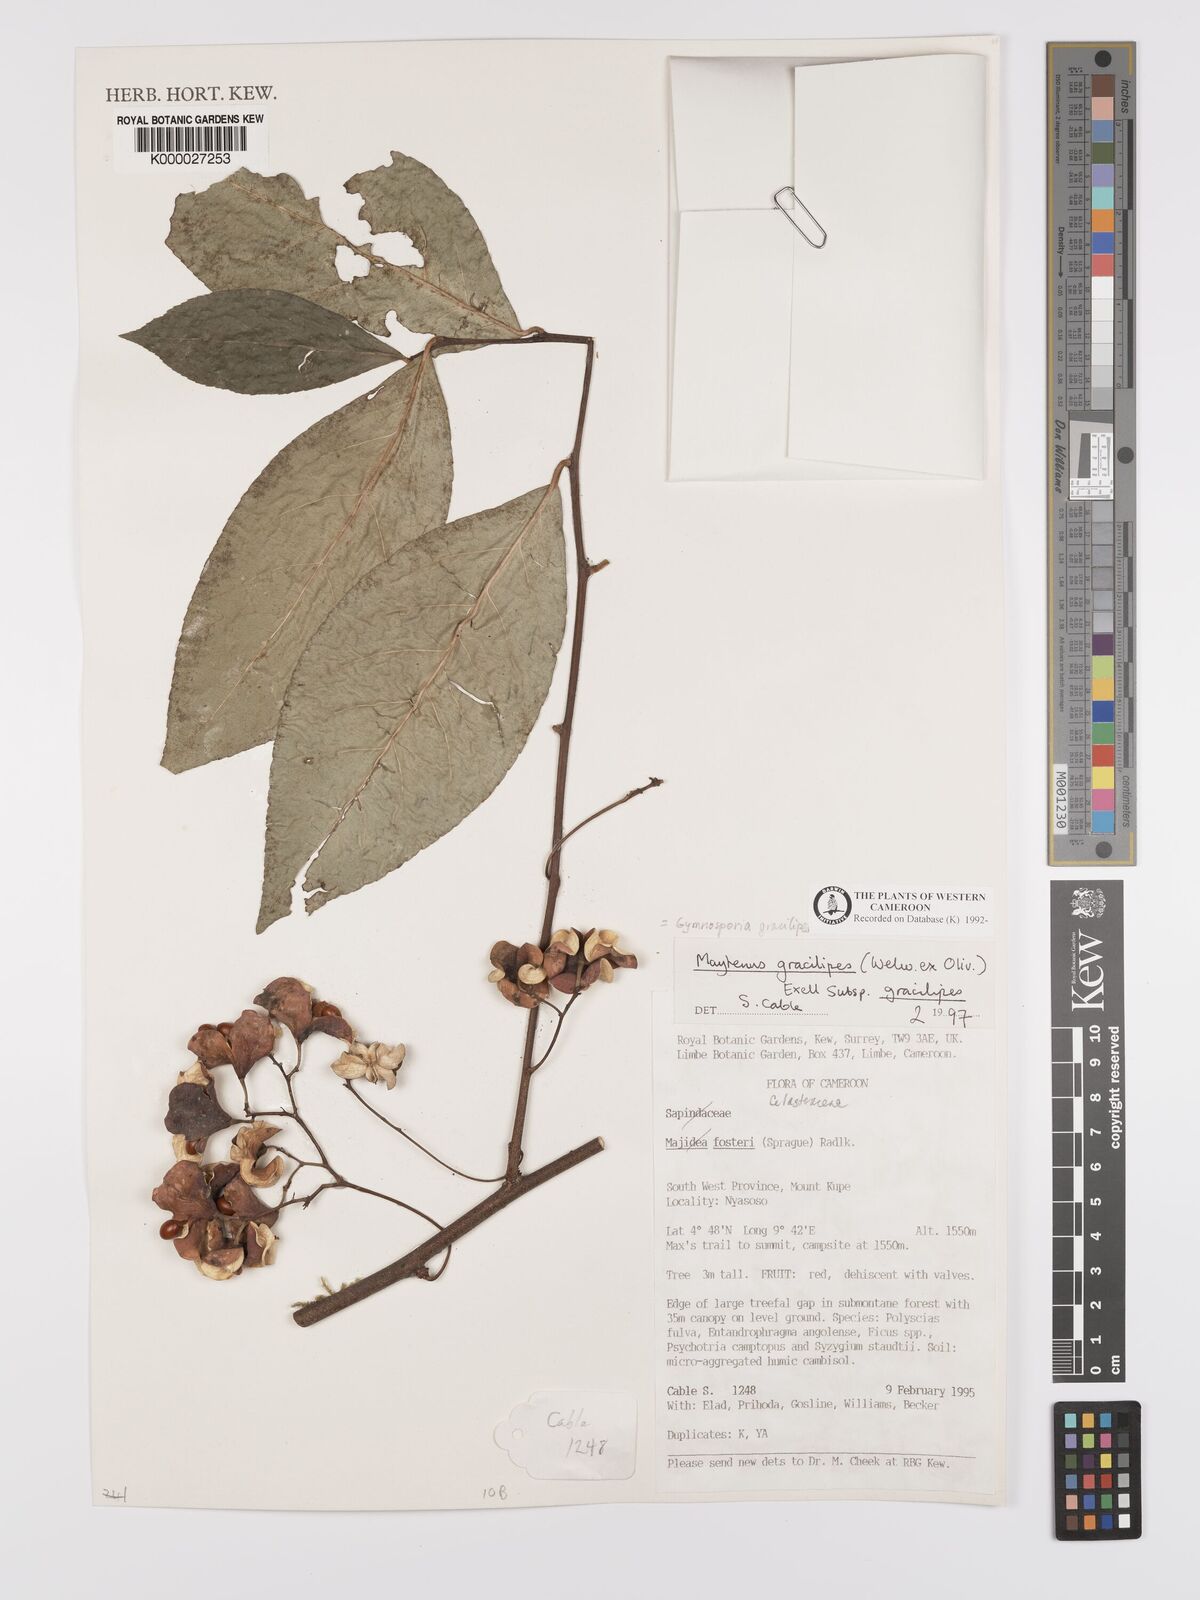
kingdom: Plantae
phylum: Tracheophyta
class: Magnoliopsida
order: Celastrales
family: Celastraceae
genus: Gymnosporia
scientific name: Gymnosporia gracilipes
